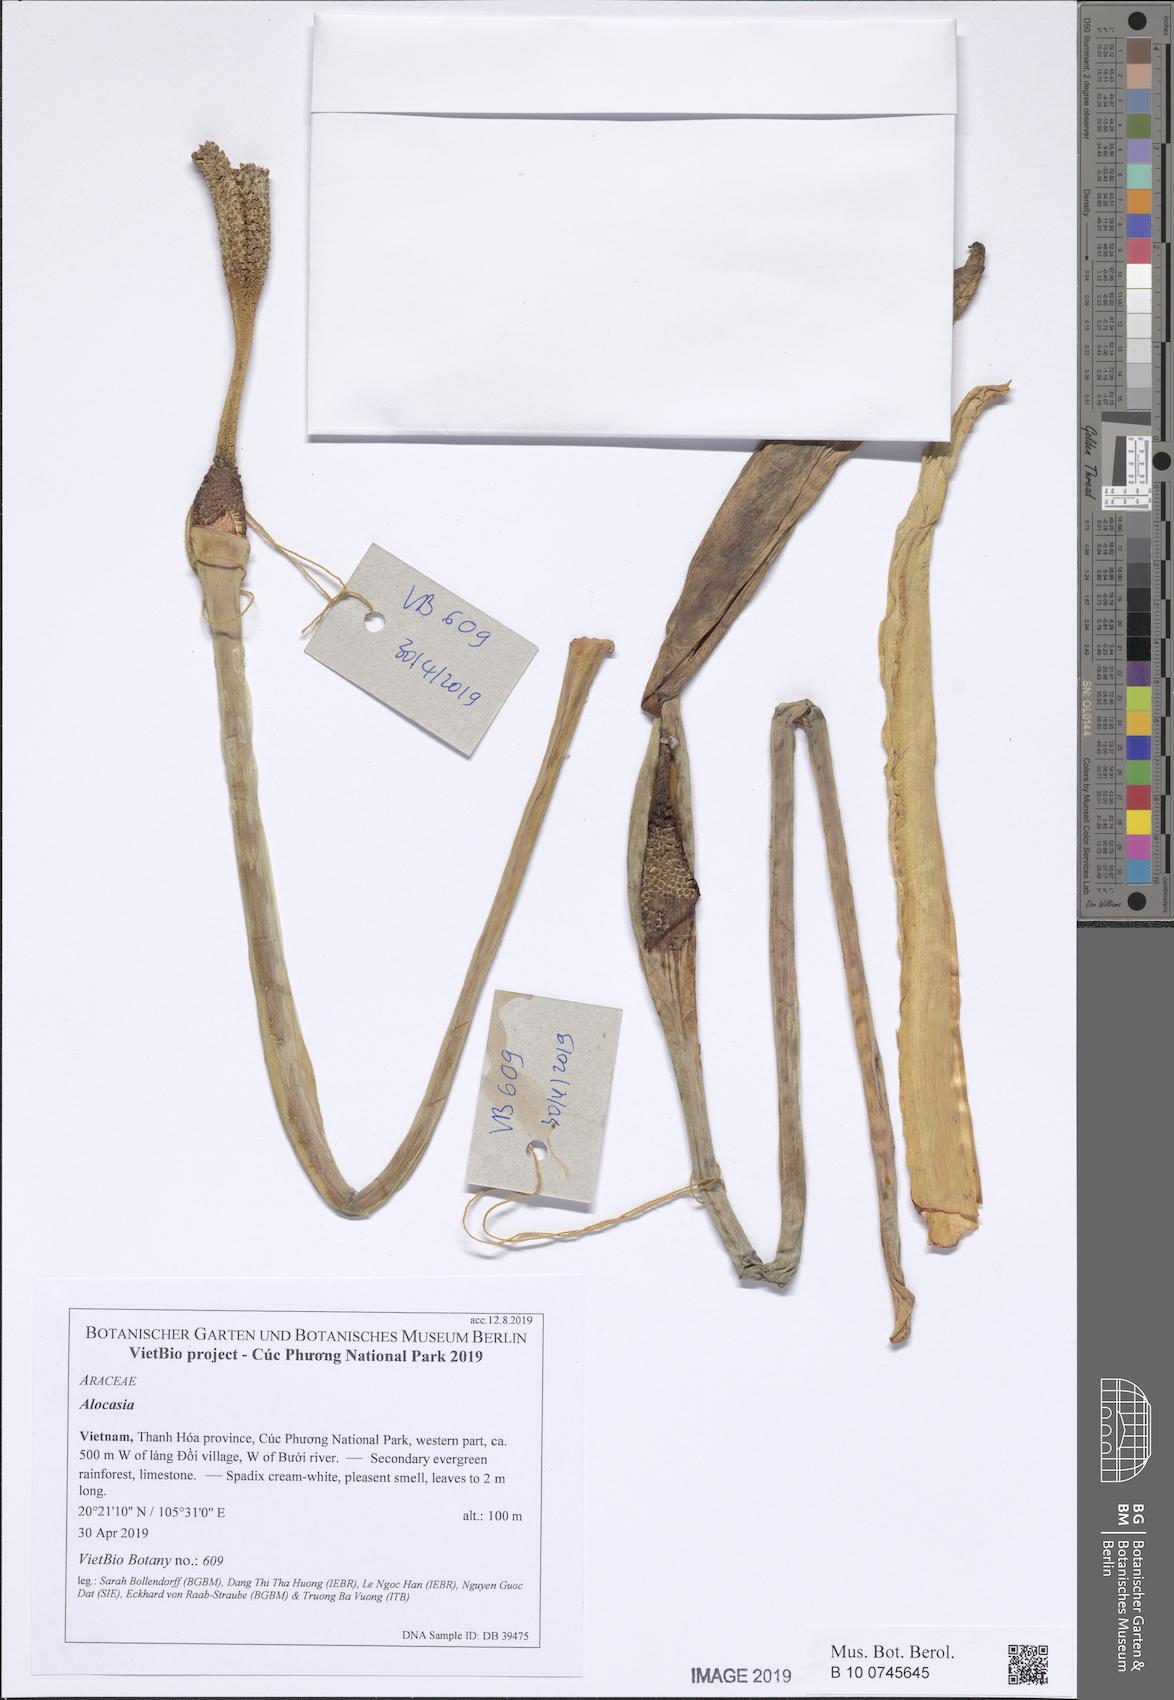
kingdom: Plantae
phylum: Tracheophyta
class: Liliopsida
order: Alismatales
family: Araceae
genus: Leucocasia
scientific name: Leucocasia gigantea
